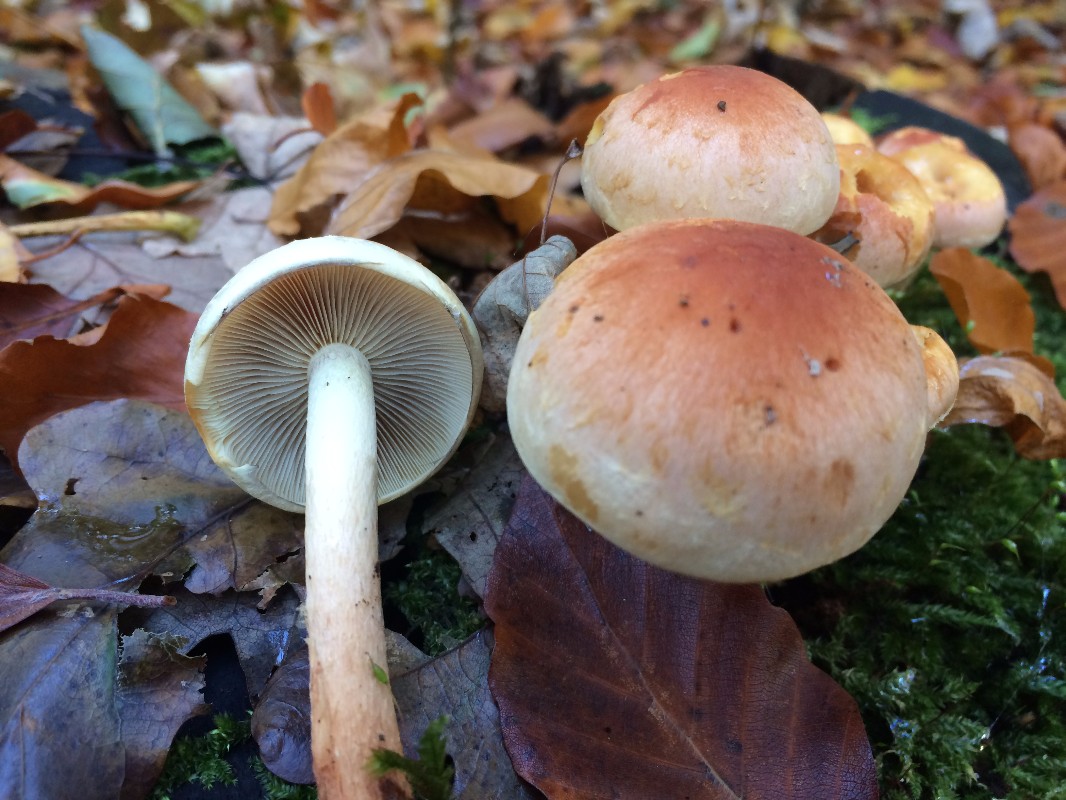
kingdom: Fungi
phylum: Basidiomycota
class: Agaricomycetes
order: Agaricales
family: Strophariaceae
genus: Hypholoma
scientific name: Hypholoma lateritium
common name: teglrød svovlhat
